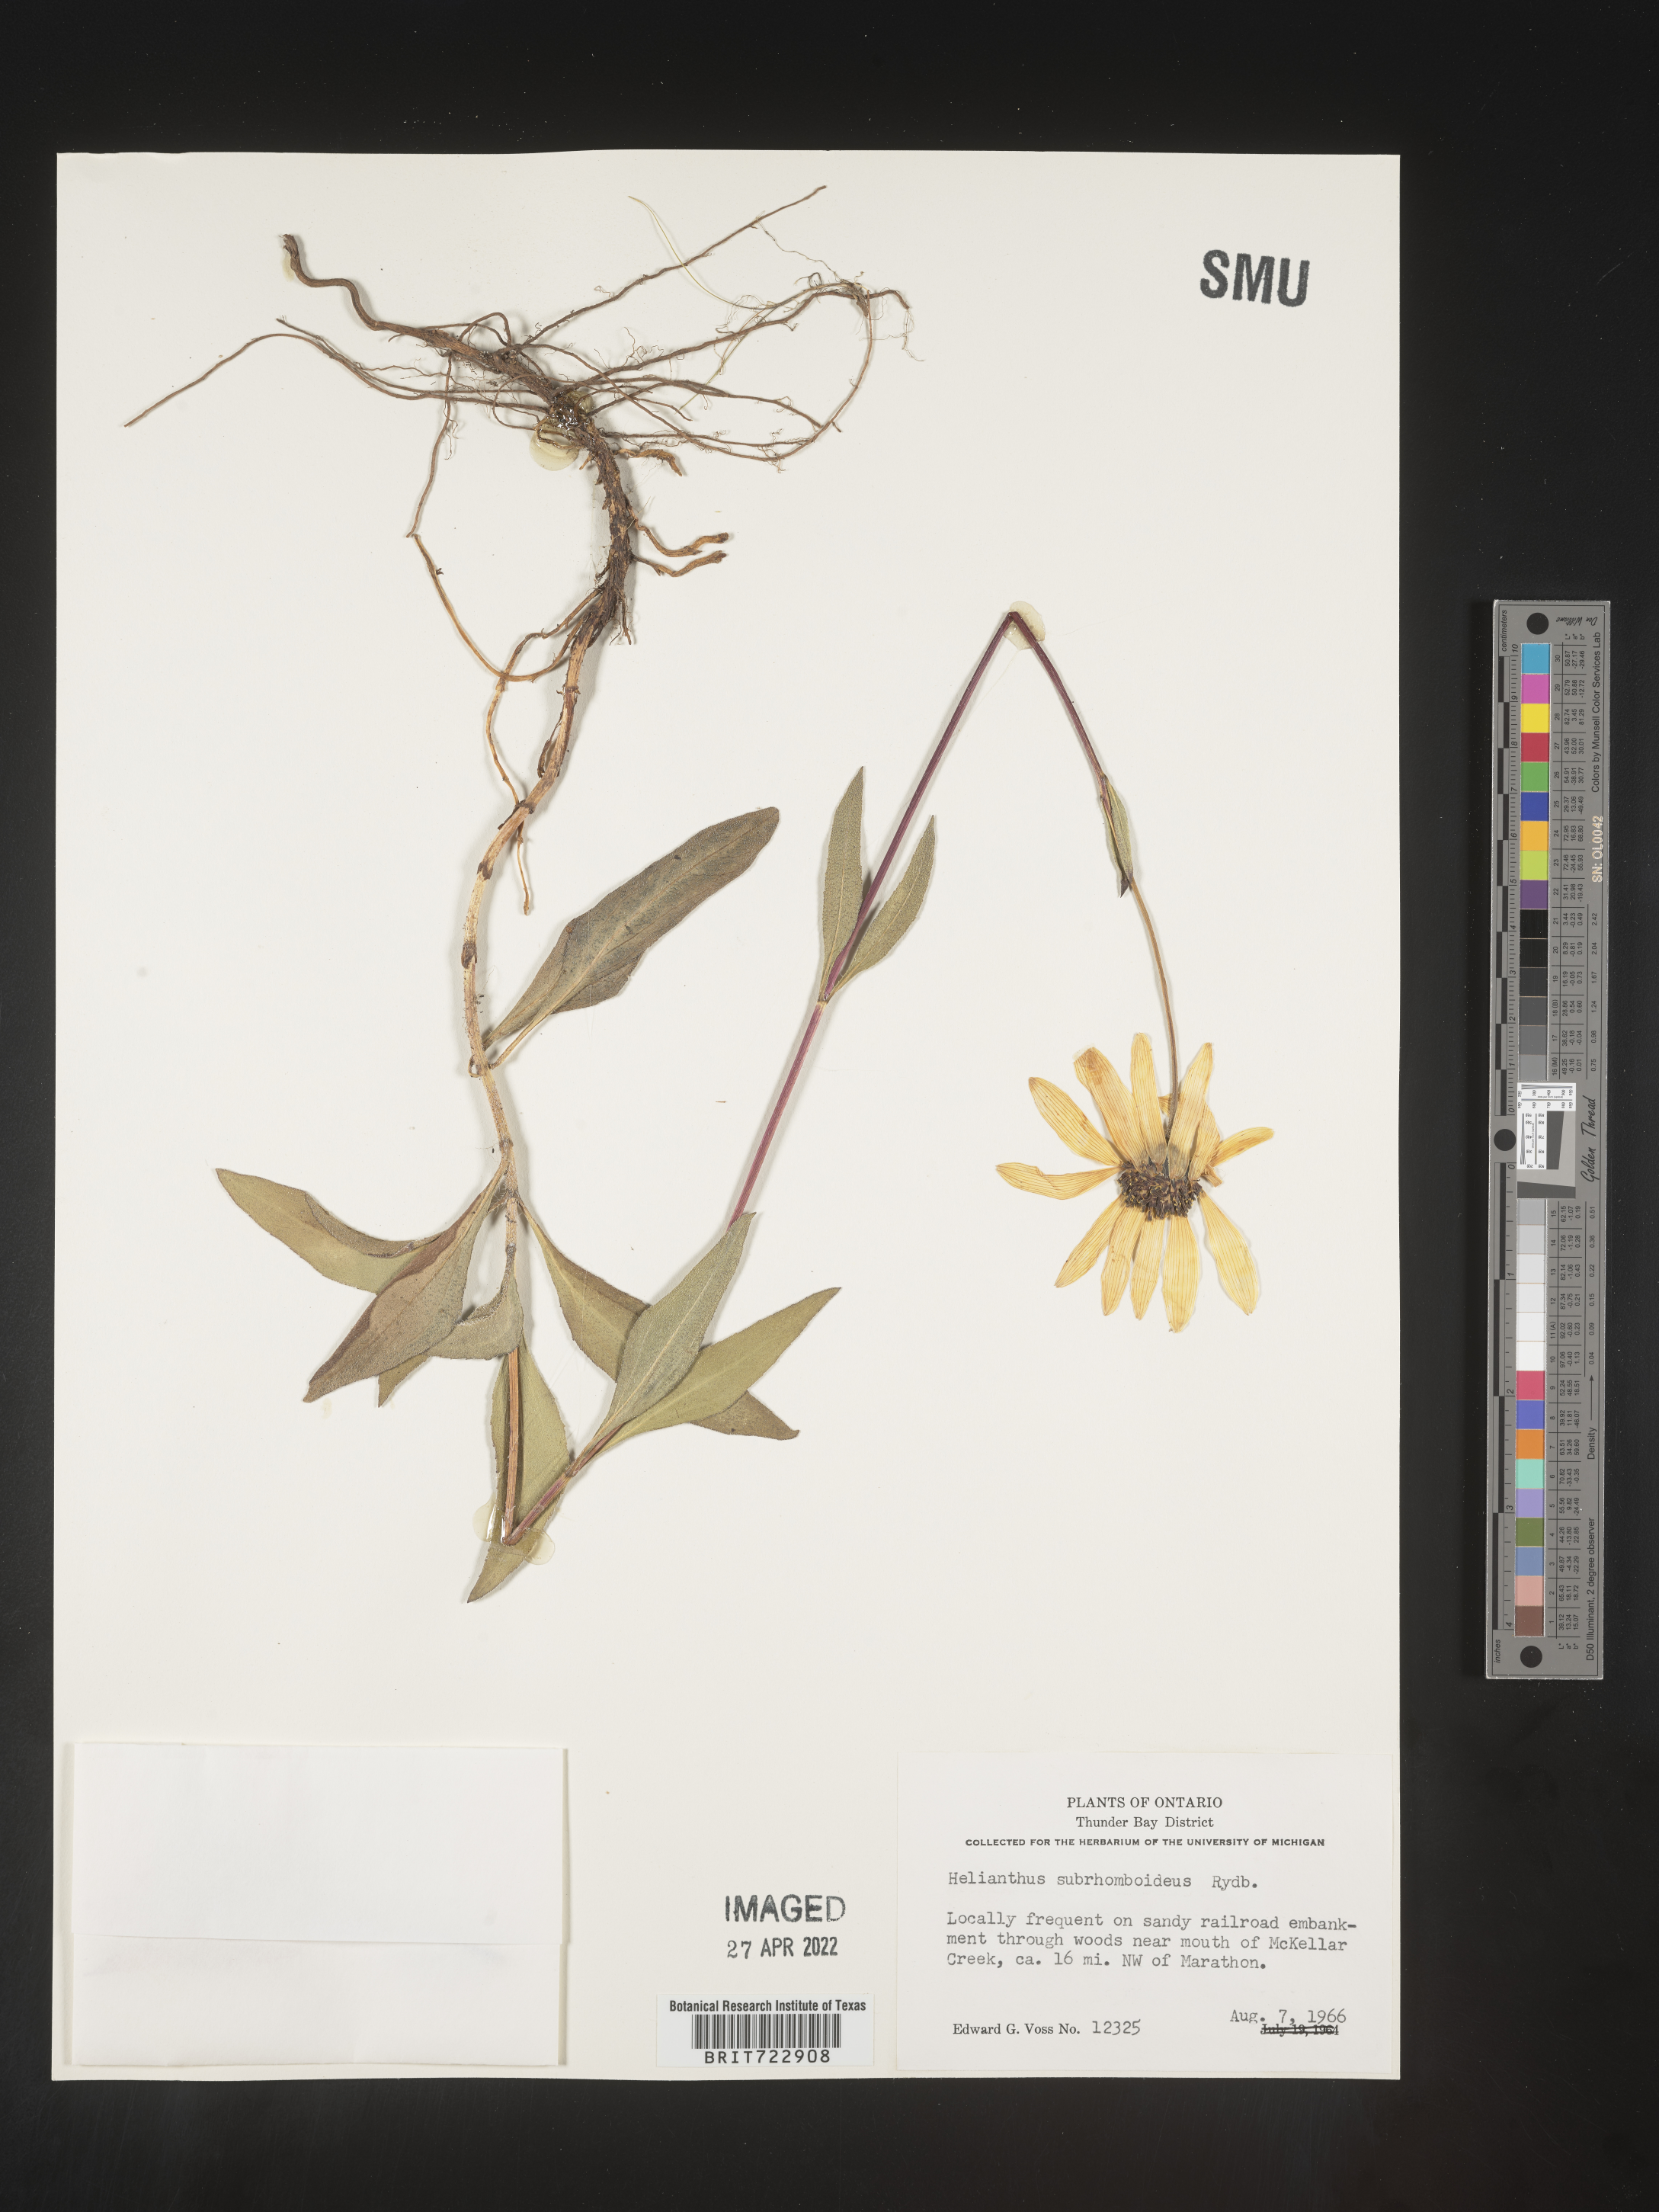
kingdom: Plantae
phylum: Tracheophyta
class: Magnoliopsida
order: Asterales
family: Asteraceae
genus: Helianthus
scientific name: Helianthus
